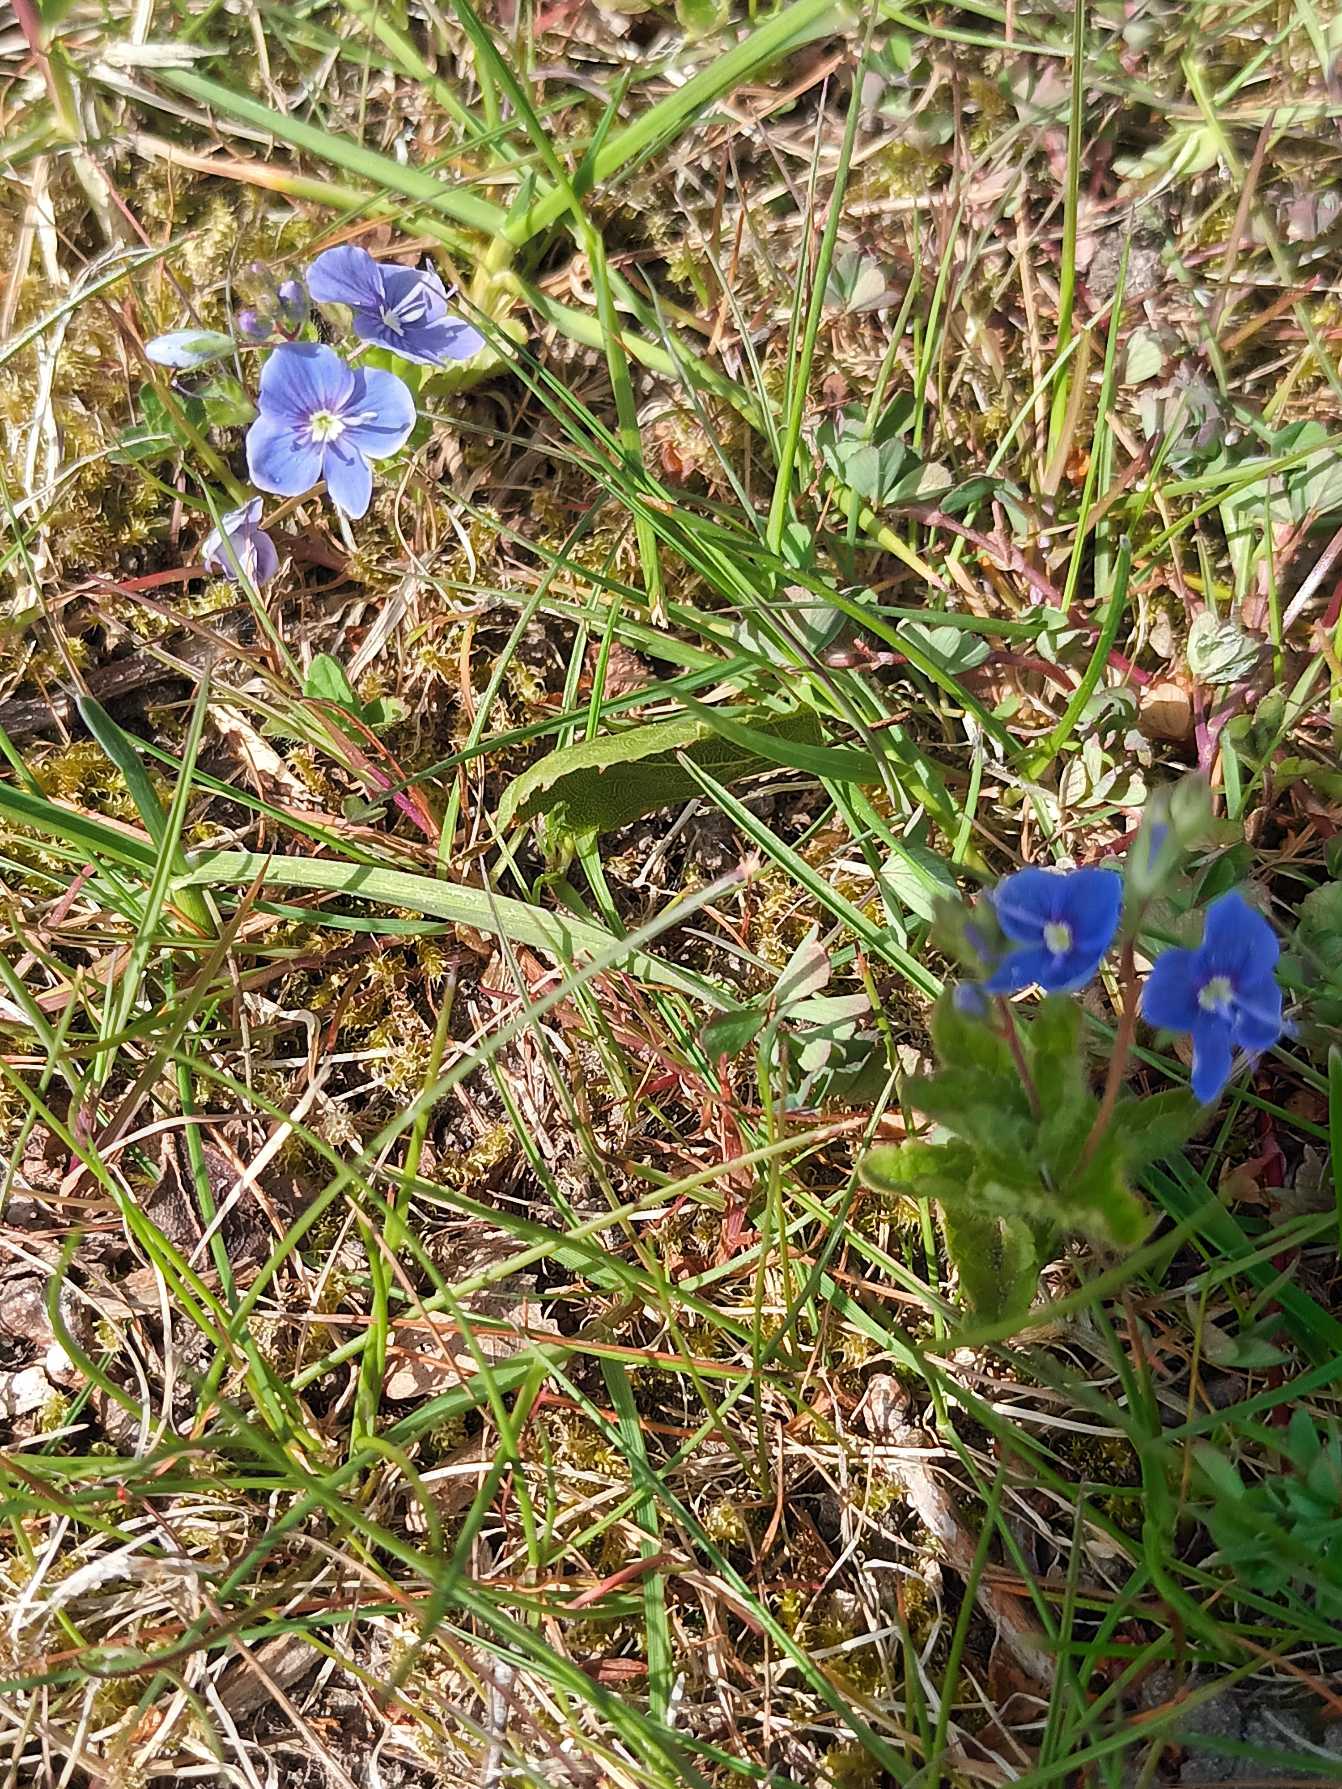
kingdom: Plantae
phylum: Tracheophyta
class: Magnoliopsida
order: Lamiales
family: Plantaginaceae
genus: Veronica
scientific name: Veronica chamaedrys
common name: Tveskægget ærenpris
